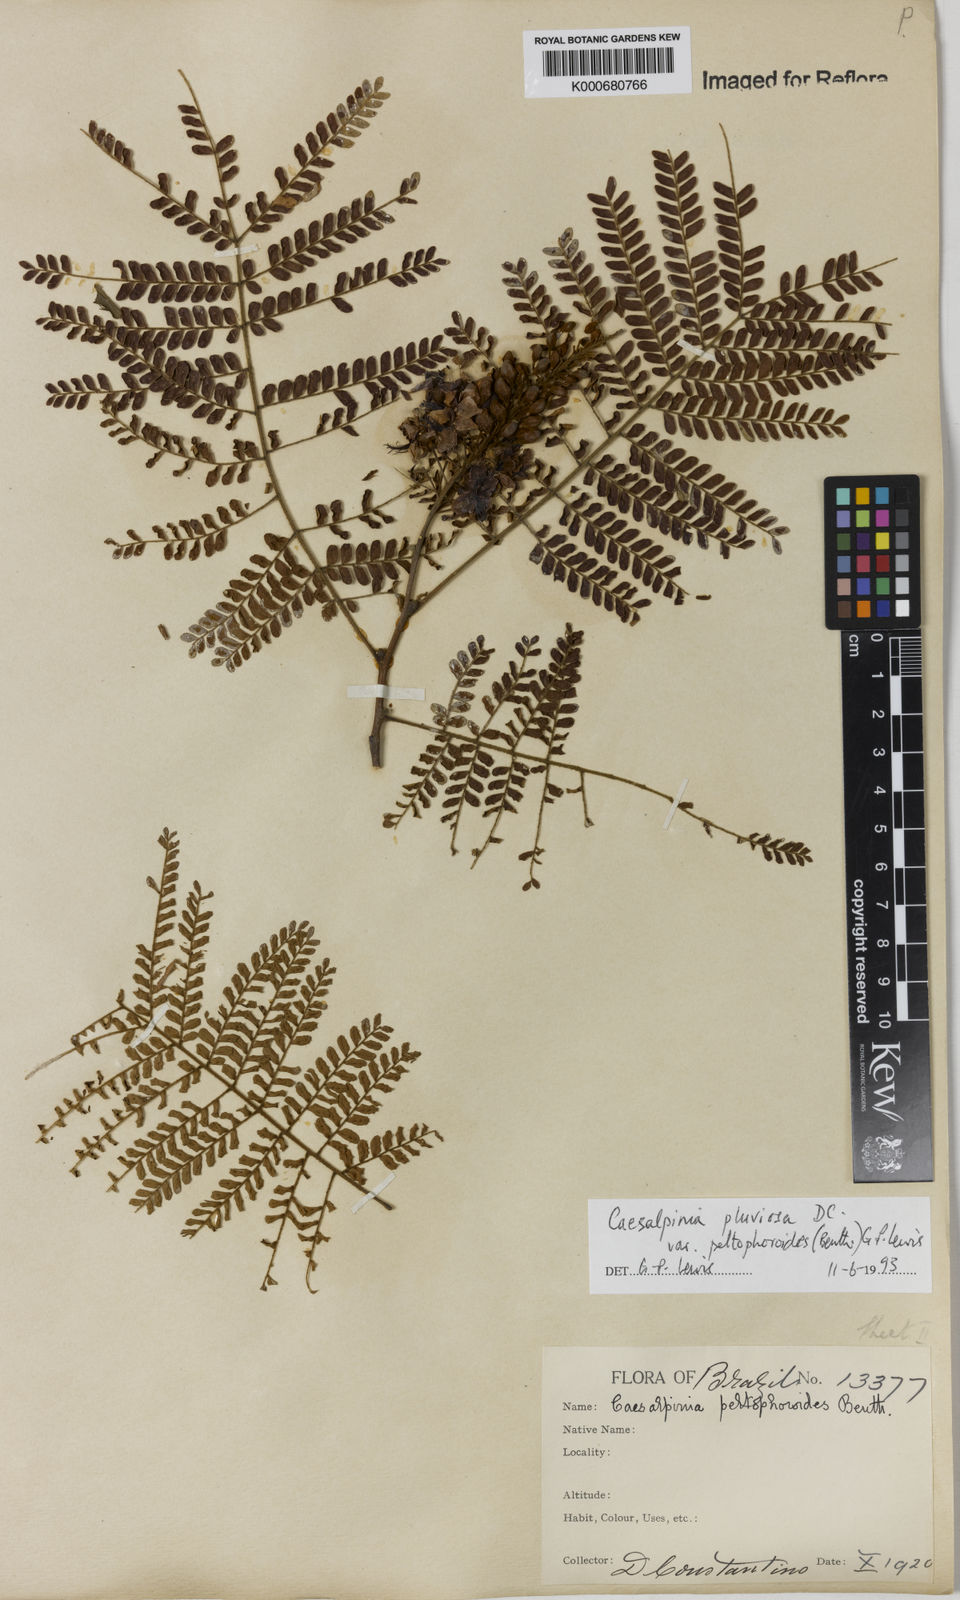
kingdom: Plantae
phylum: Tracheophyta
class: Magnoliopsida
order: Fabales
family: Fabaceae
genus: Cenostigma
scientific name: Cenostigma pluviosum
